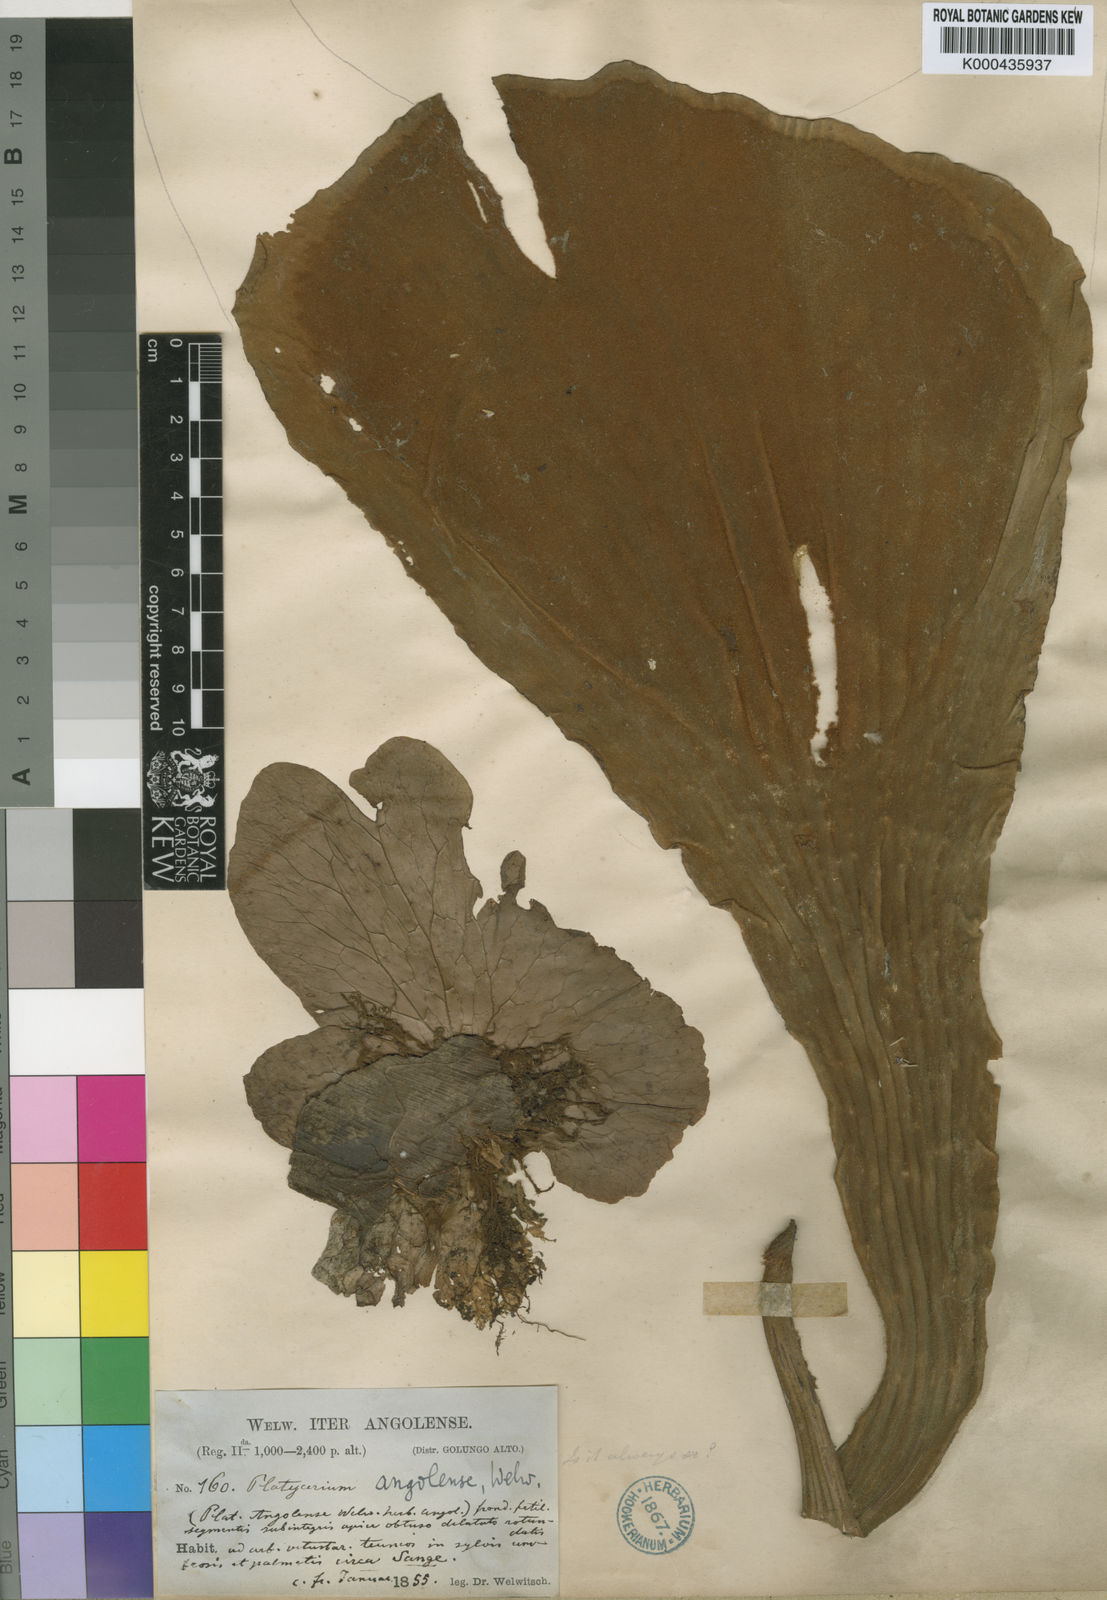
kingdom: Plantae
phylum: Tracheophyta
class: Polypodiopsida
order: Polypodiales
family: Polypodiaceae
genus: Platycerium
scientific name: Platycerium elephantotis
